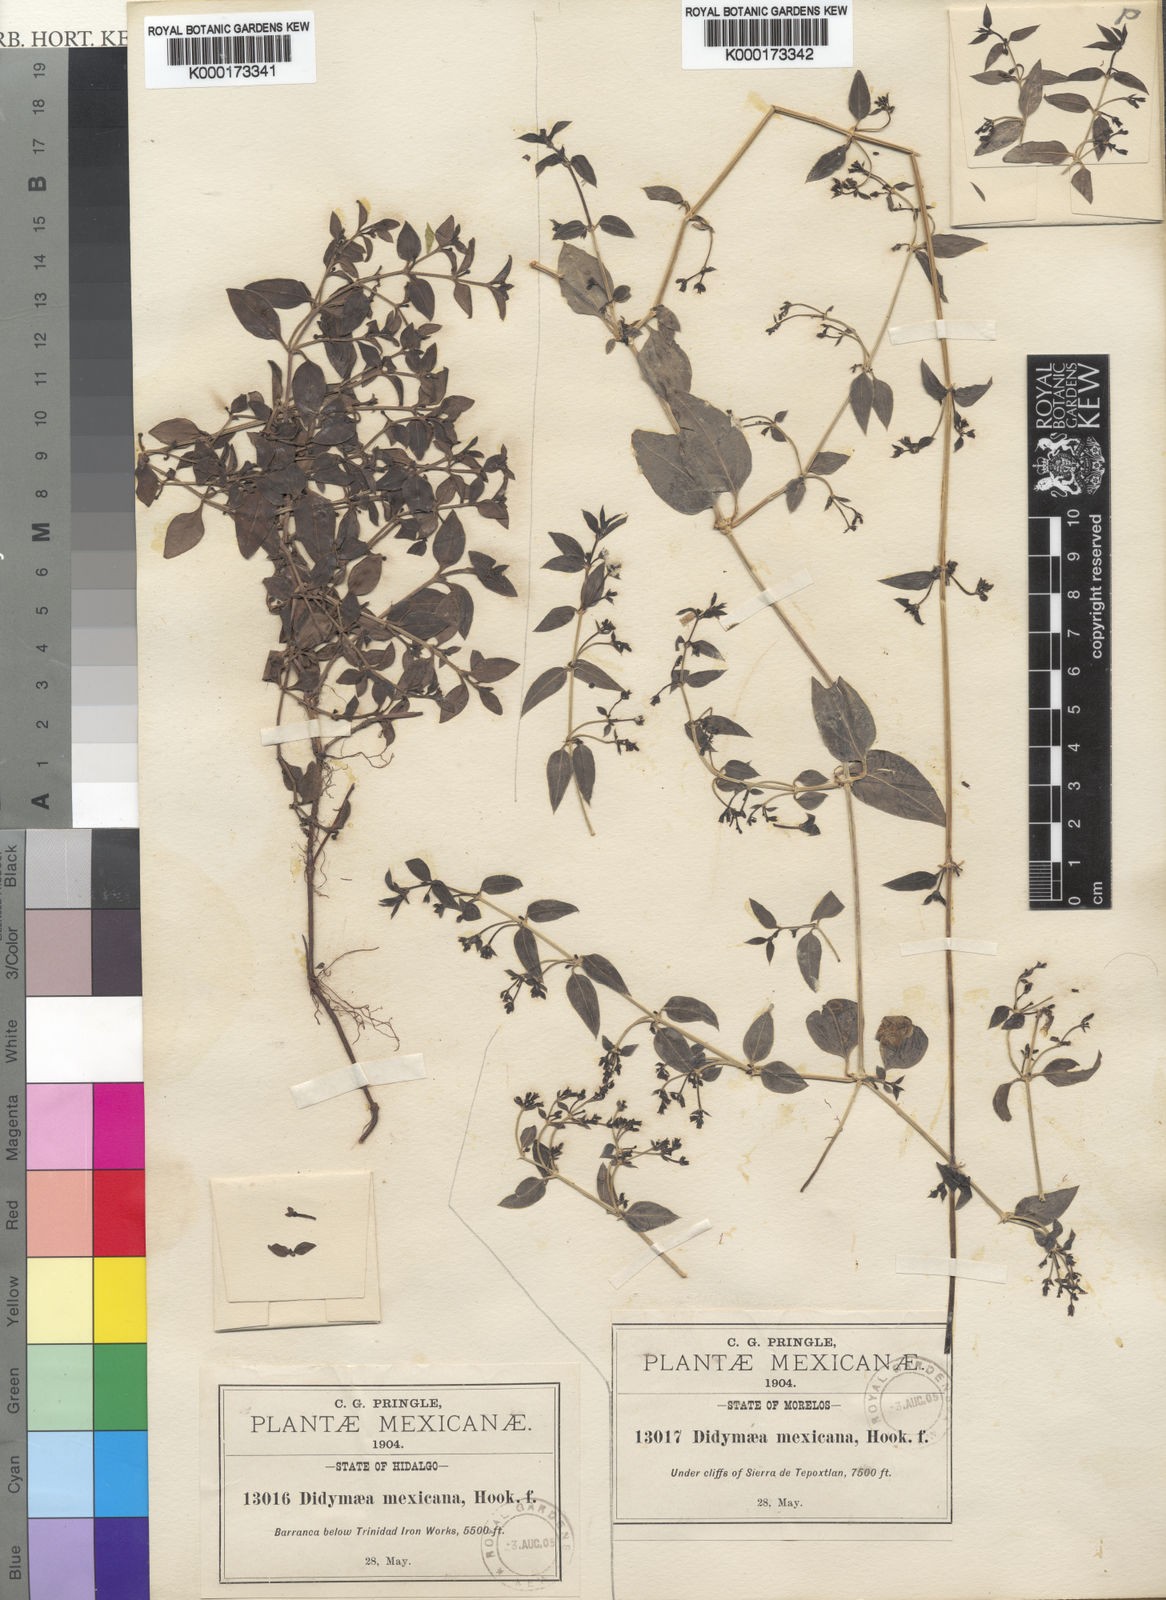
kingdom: Plantae
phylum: Tracheophyta
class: Magnoliopsida
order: Gentianales
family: Rubiaceae
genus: Didymaea
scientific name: Didymaea mexicana
